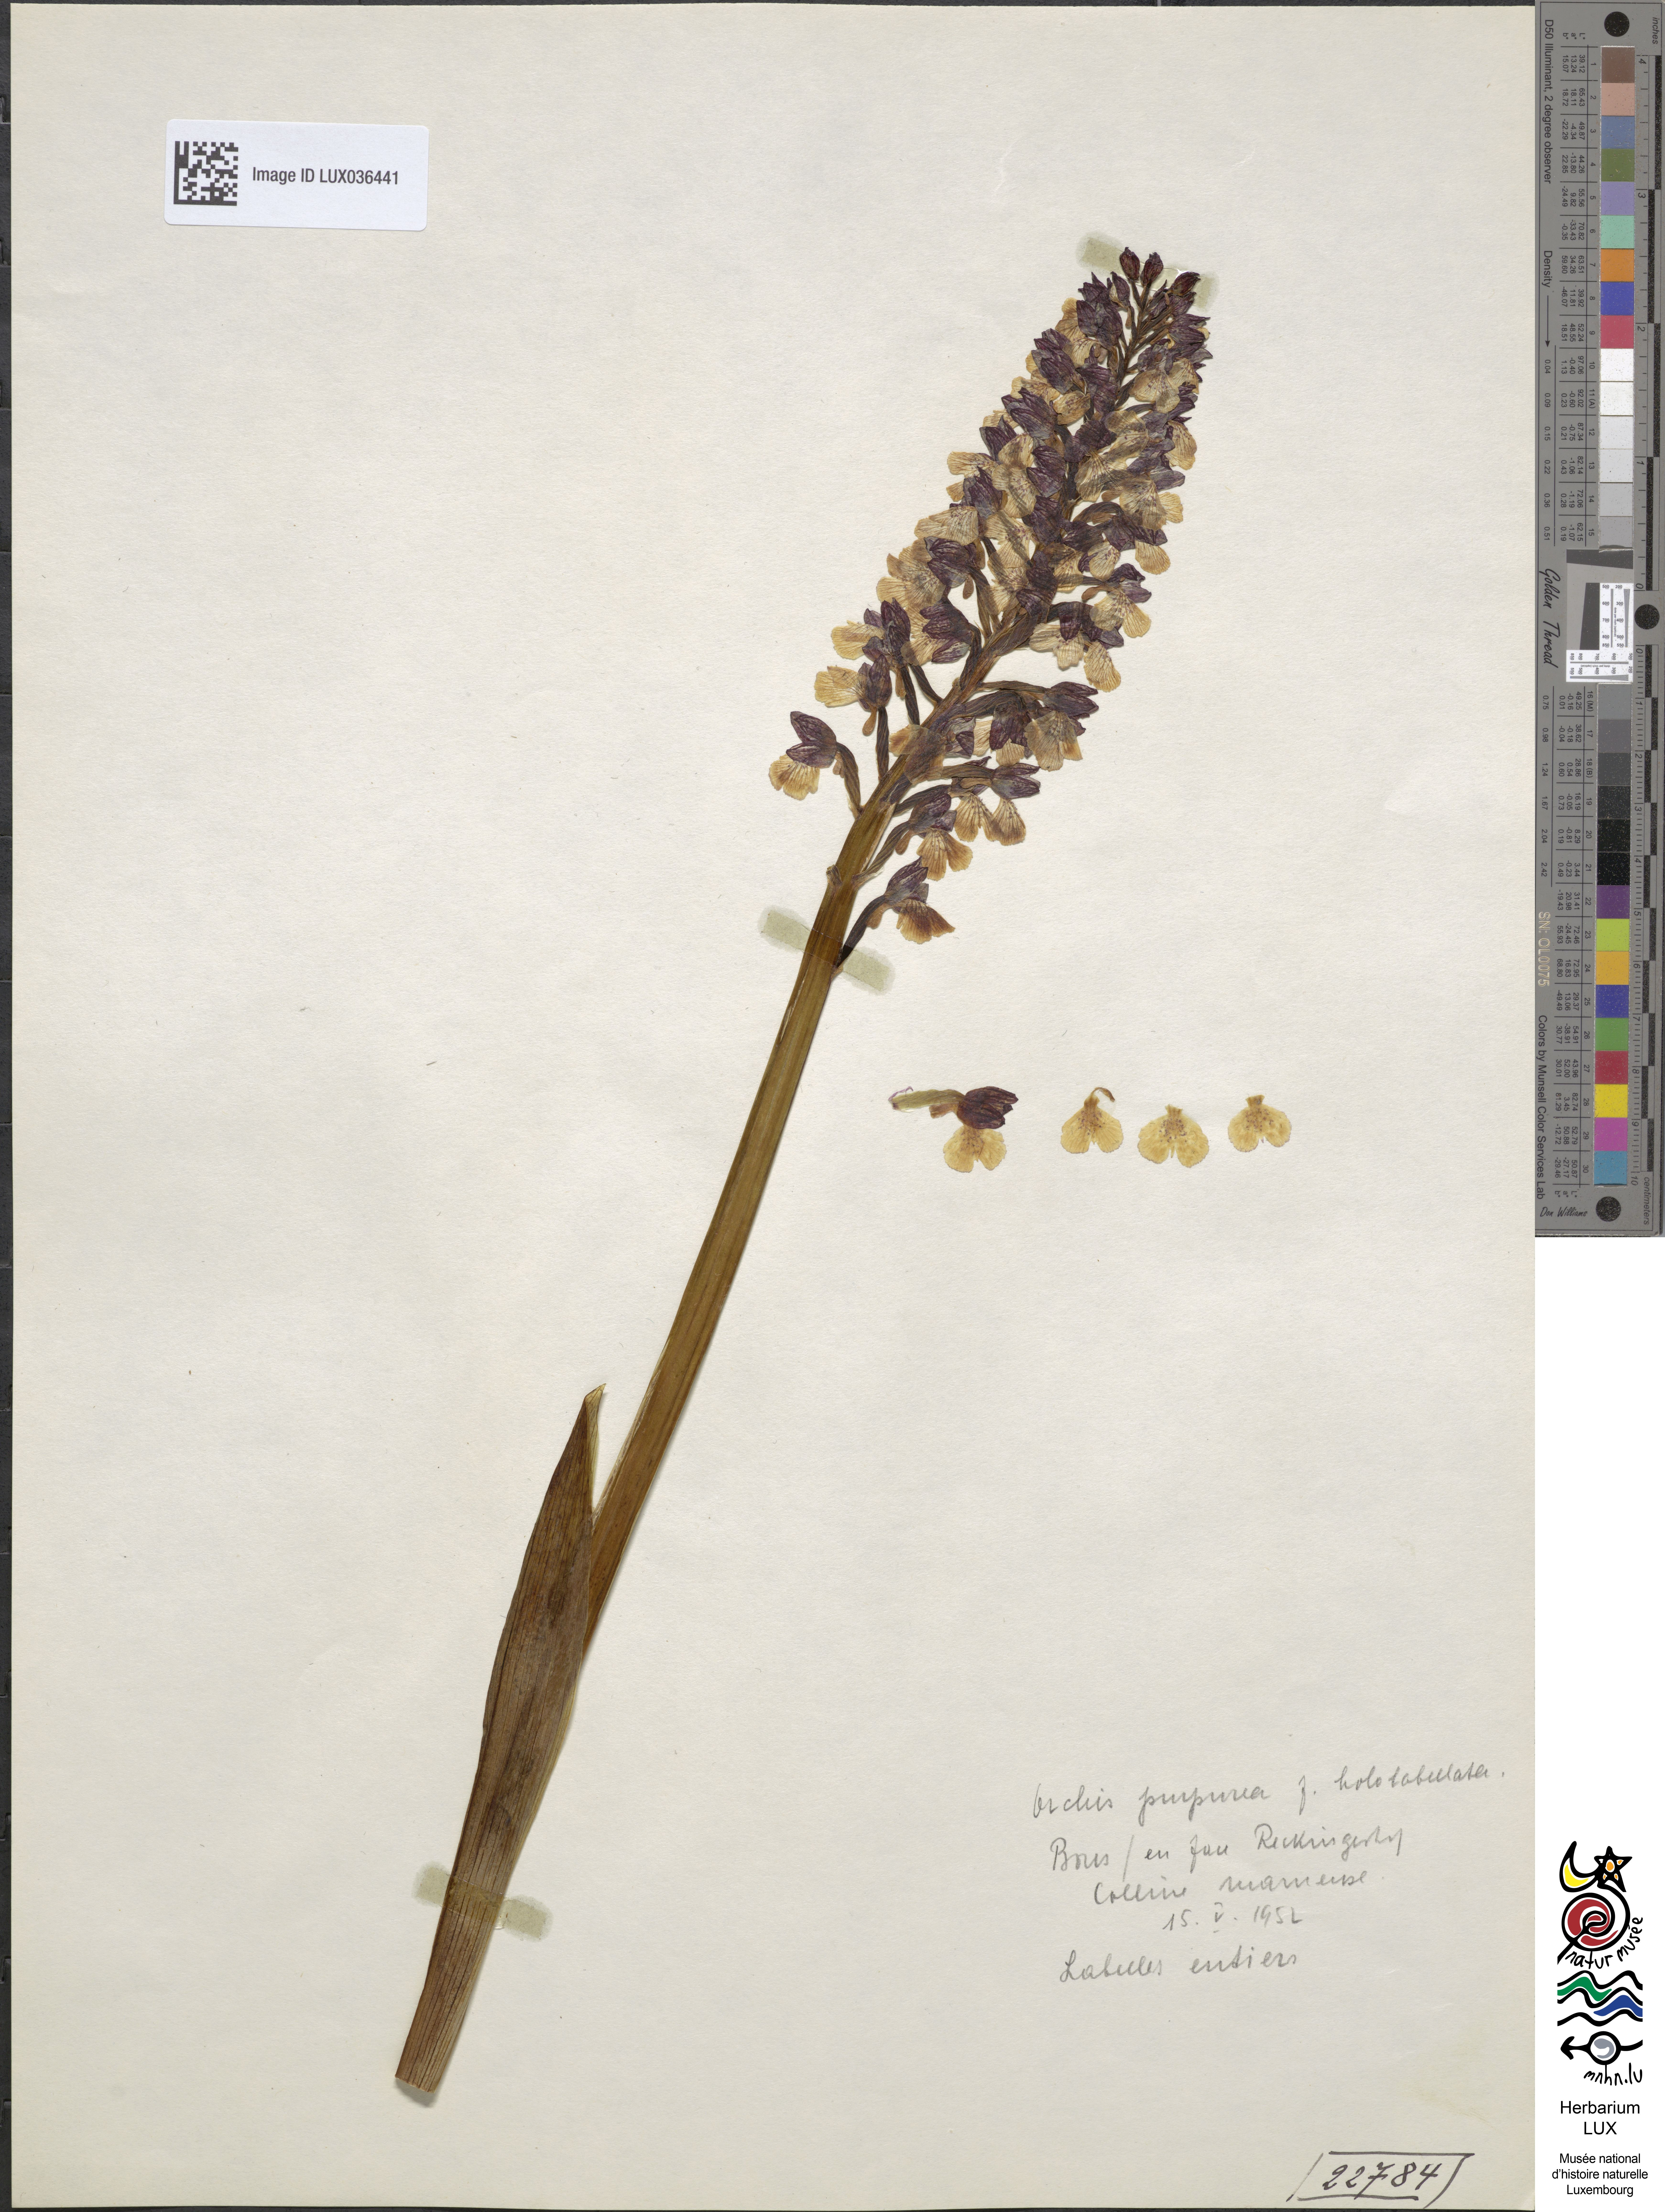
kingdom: Plantae
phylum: Tracheophyta
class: Liliopsida
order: Asparagales
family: Orchidaceae
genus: Orchis
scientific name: Orchis purpurea
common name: Lady orchid
